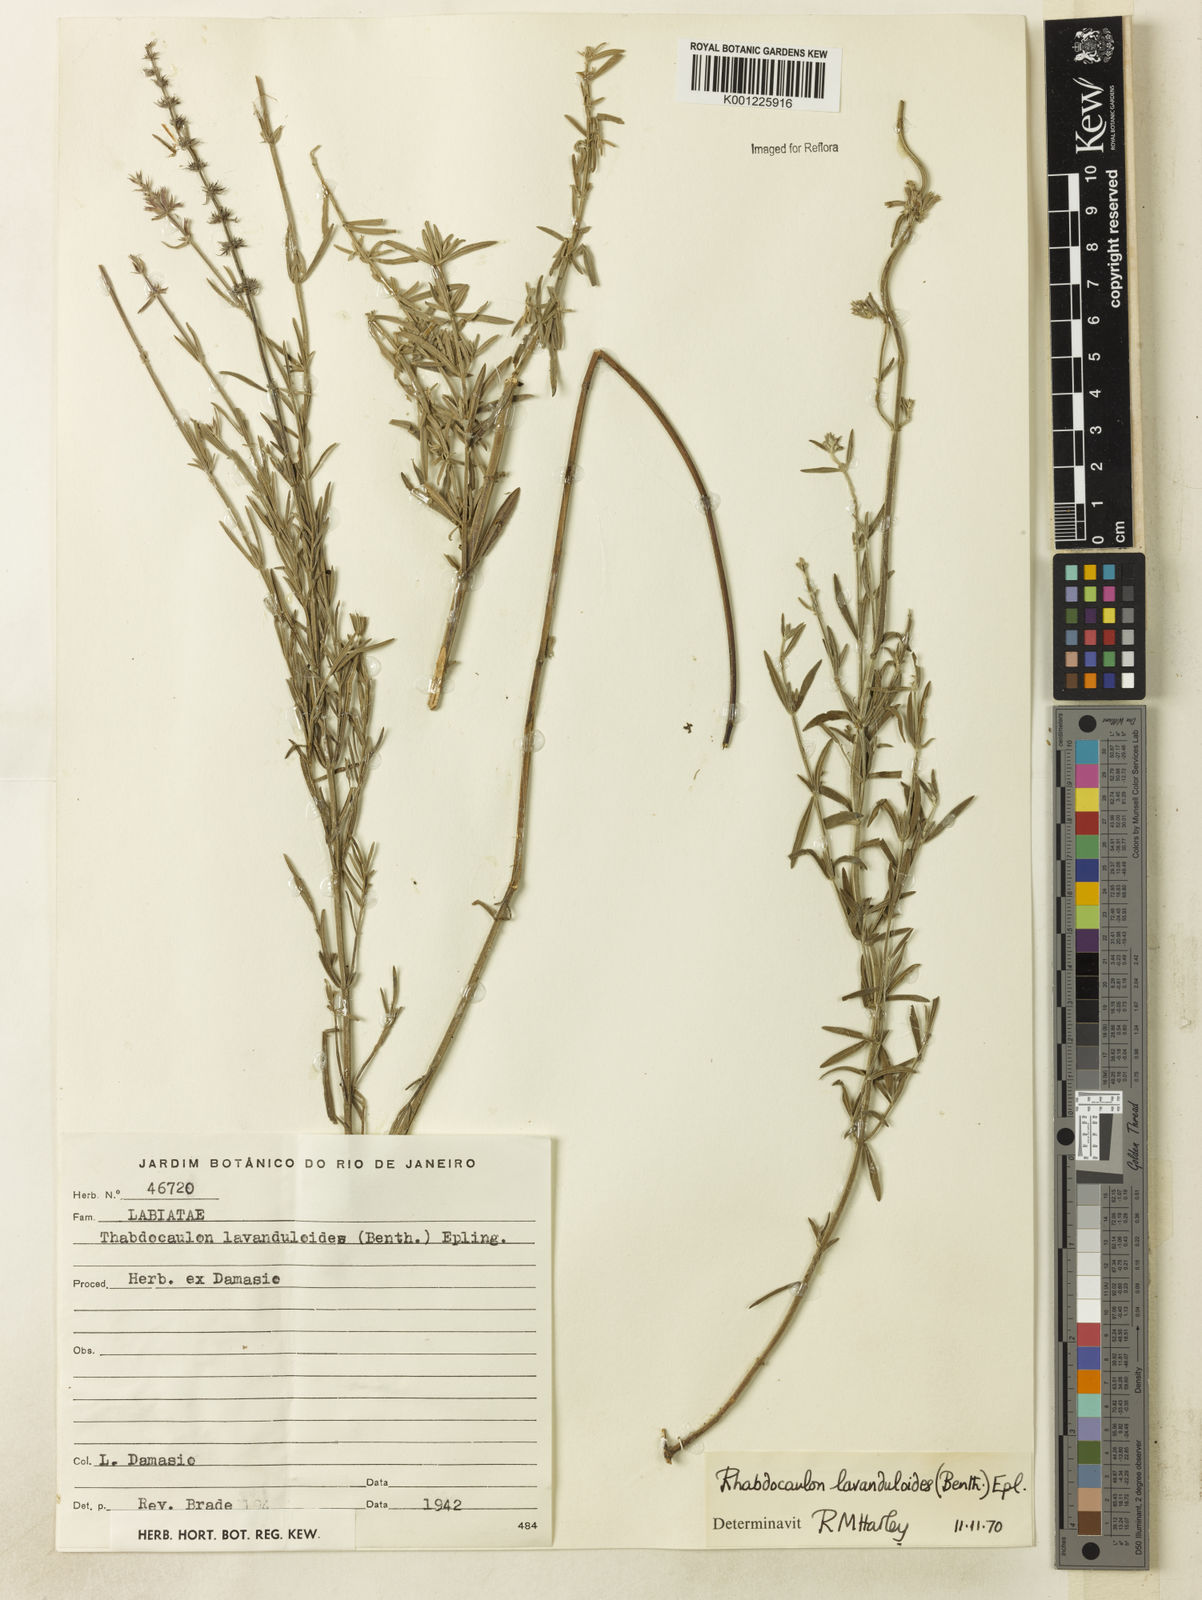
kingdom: Plantae
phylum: Tracheophyta
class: Magnoliopsida
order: Lamiales
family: Lamiaceae
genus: Rhabdocaulon
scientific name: Rhabdocaulon lavanduloides
